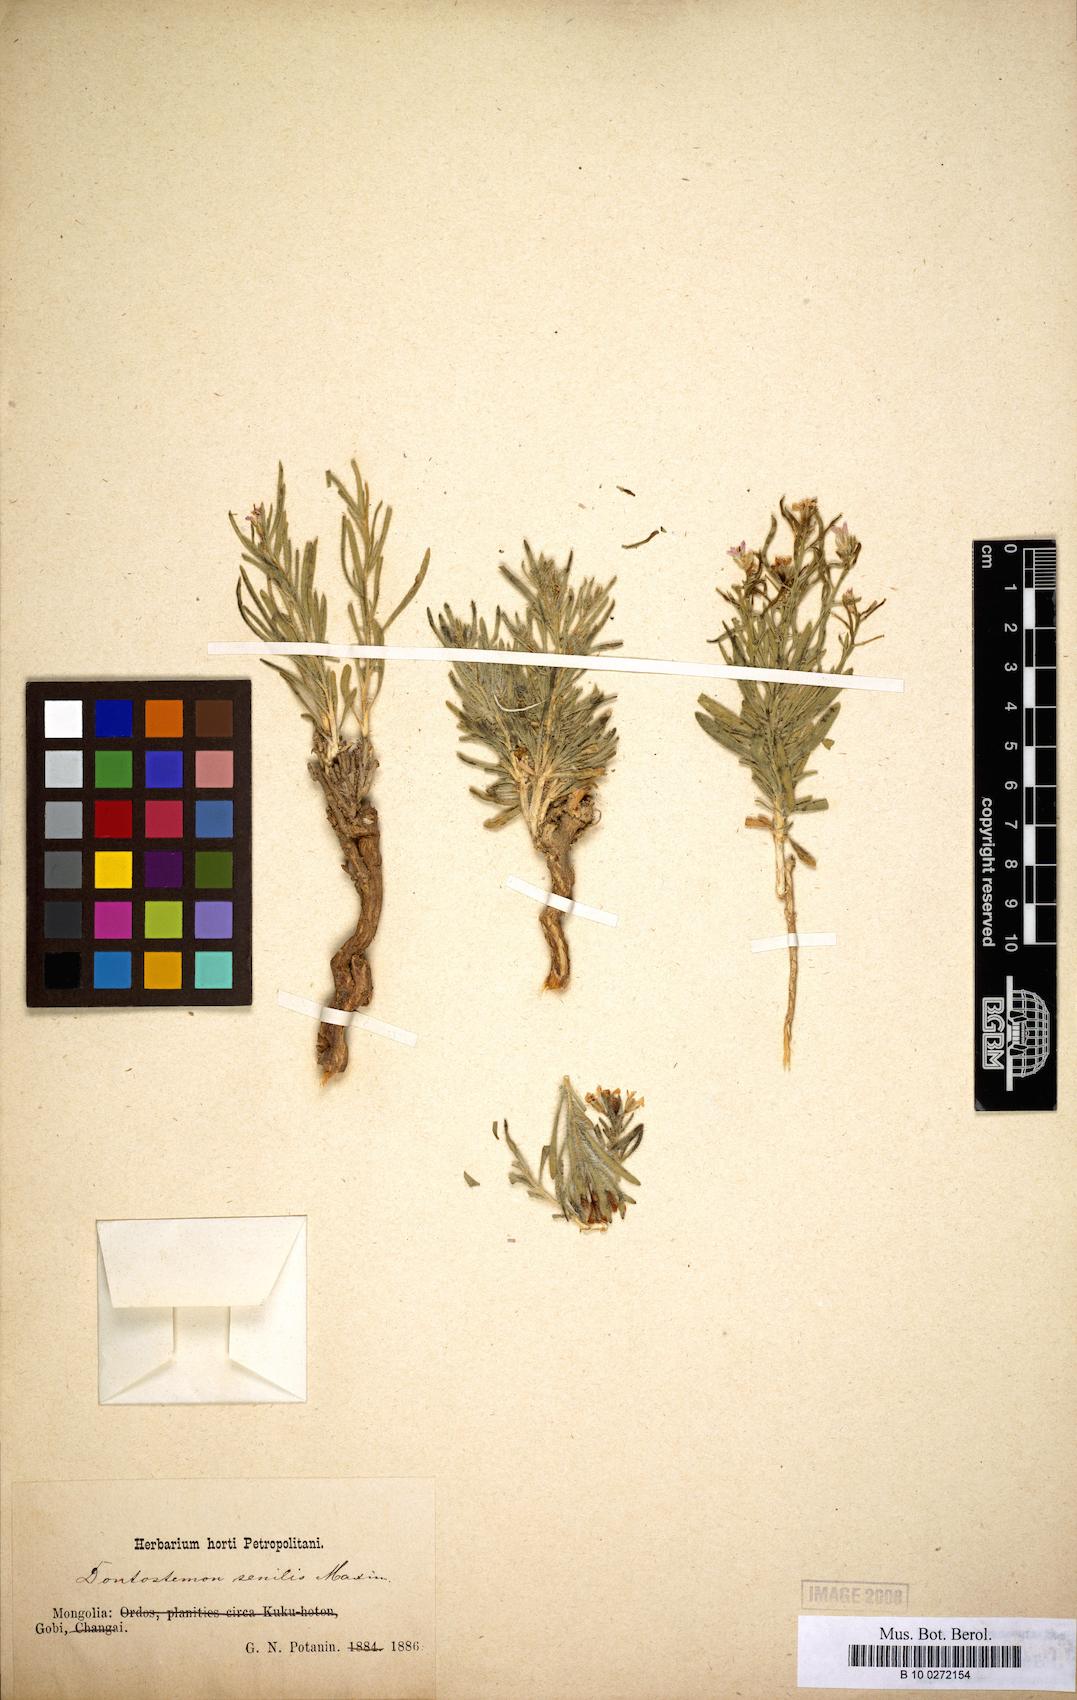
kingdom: Plantae
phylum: Tracheophyta
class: Magnoliopsida
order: Brassicales
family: Brassicaceae
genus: Dontostemon
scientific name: Dontostemon senilis
